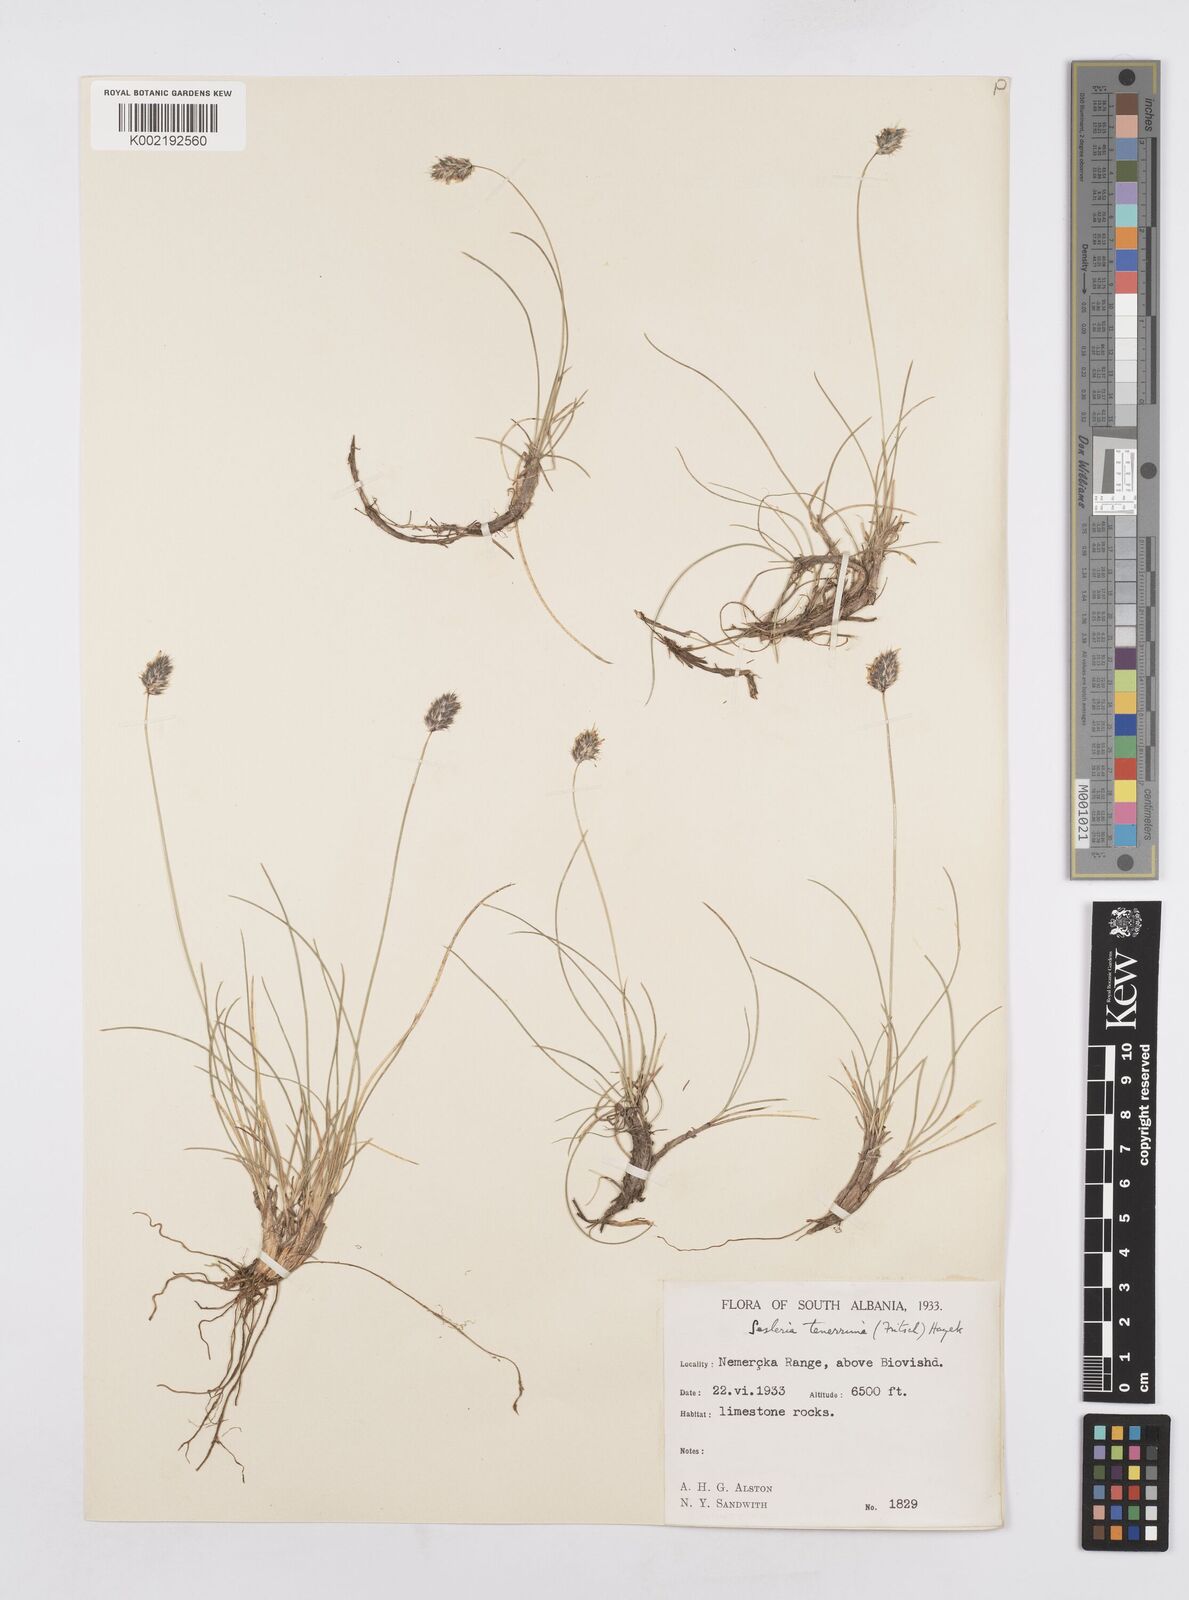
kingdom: Plantae
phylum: Tracheophyta
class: Liliopsida
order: Poales
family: Poaceae
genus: Sesleria
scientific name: Sesleria tenerrima
